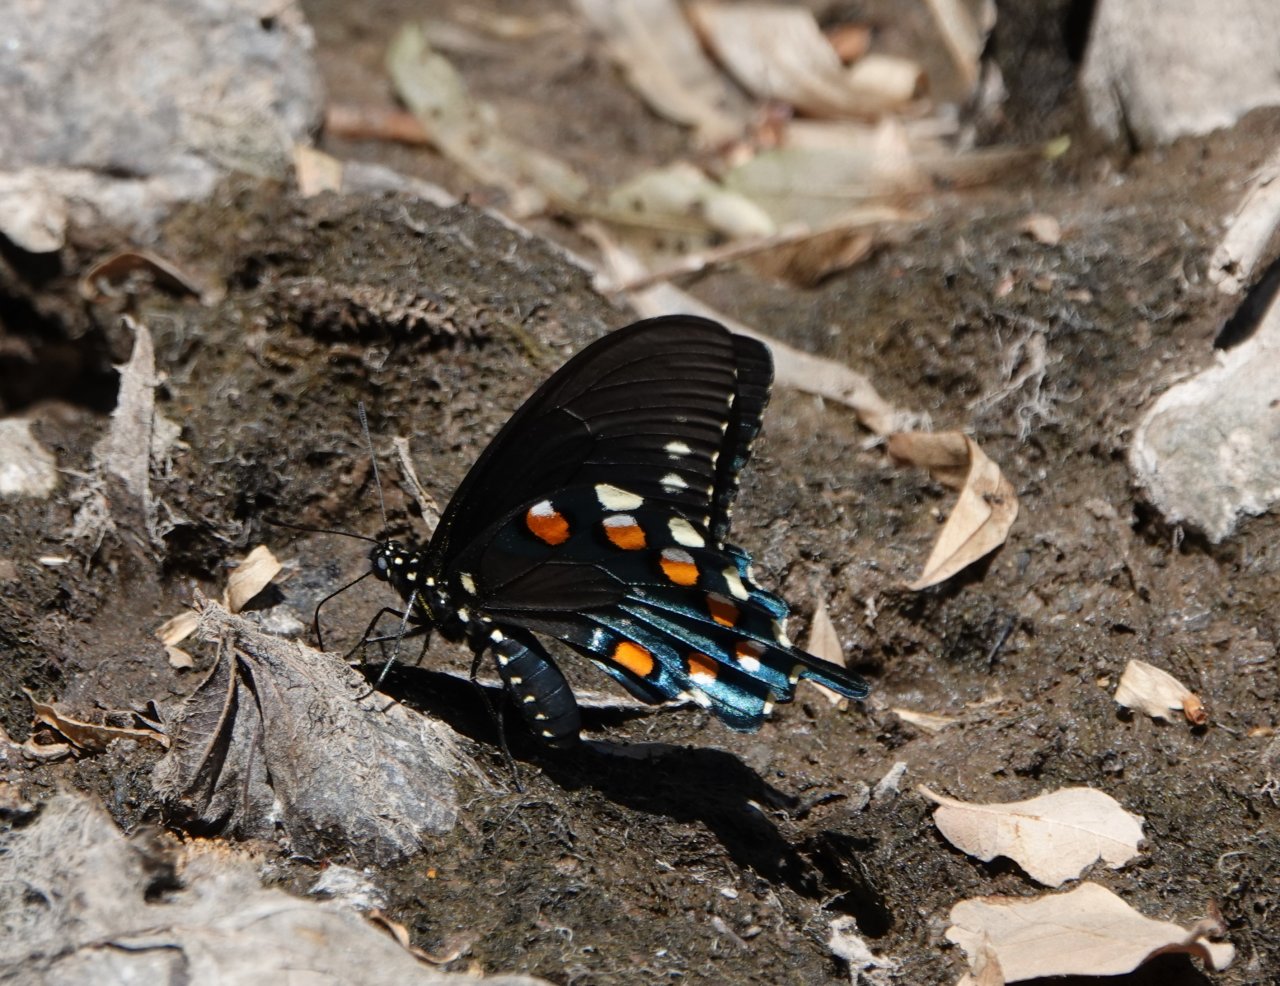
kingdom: Animalia
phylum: Arthropoda
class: Insecta
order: Lepidoptera
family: Papilionidae
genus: Battus
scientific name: Battus philenor
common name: Pipevine Swallowtail
